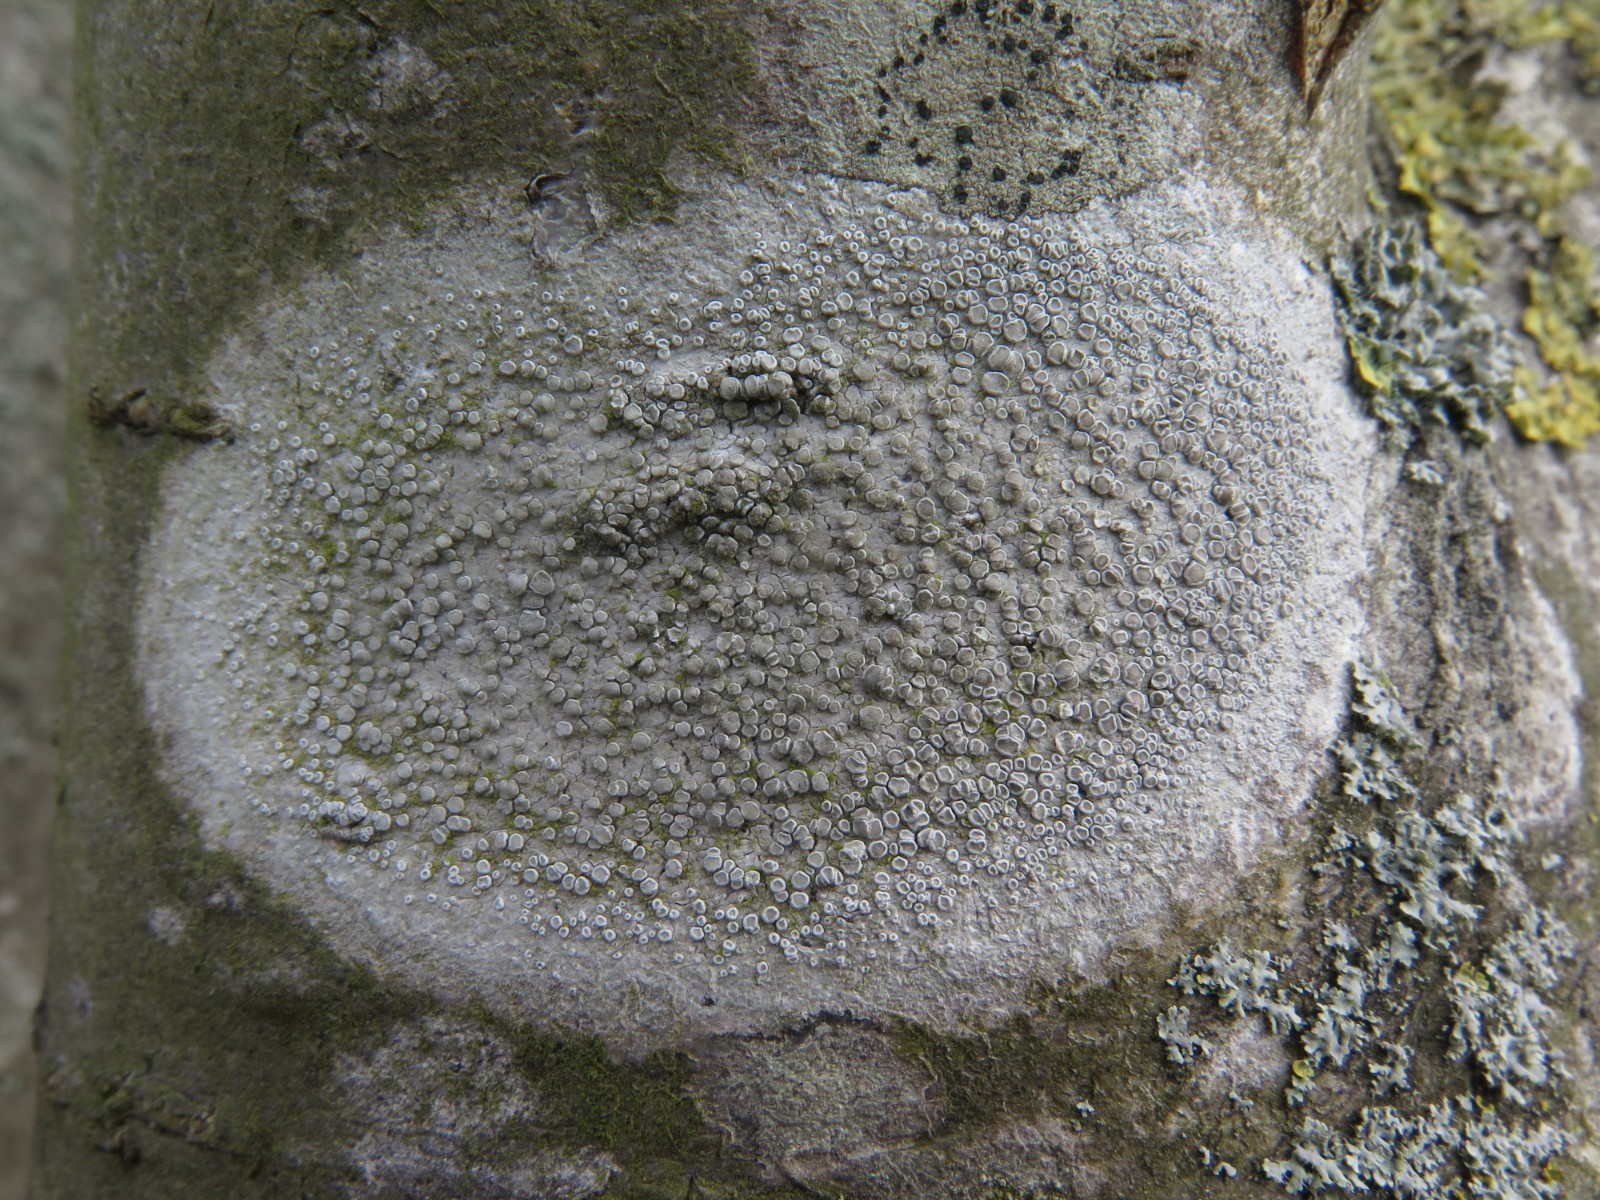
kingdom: Fungi
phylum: Ascomycota
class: Lecanoromycetes
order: Lecanorales
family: Lecanoraceae
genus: Glaucomaria
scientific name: Glaucomaria carpinea
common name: hviddugget kantskivelav
